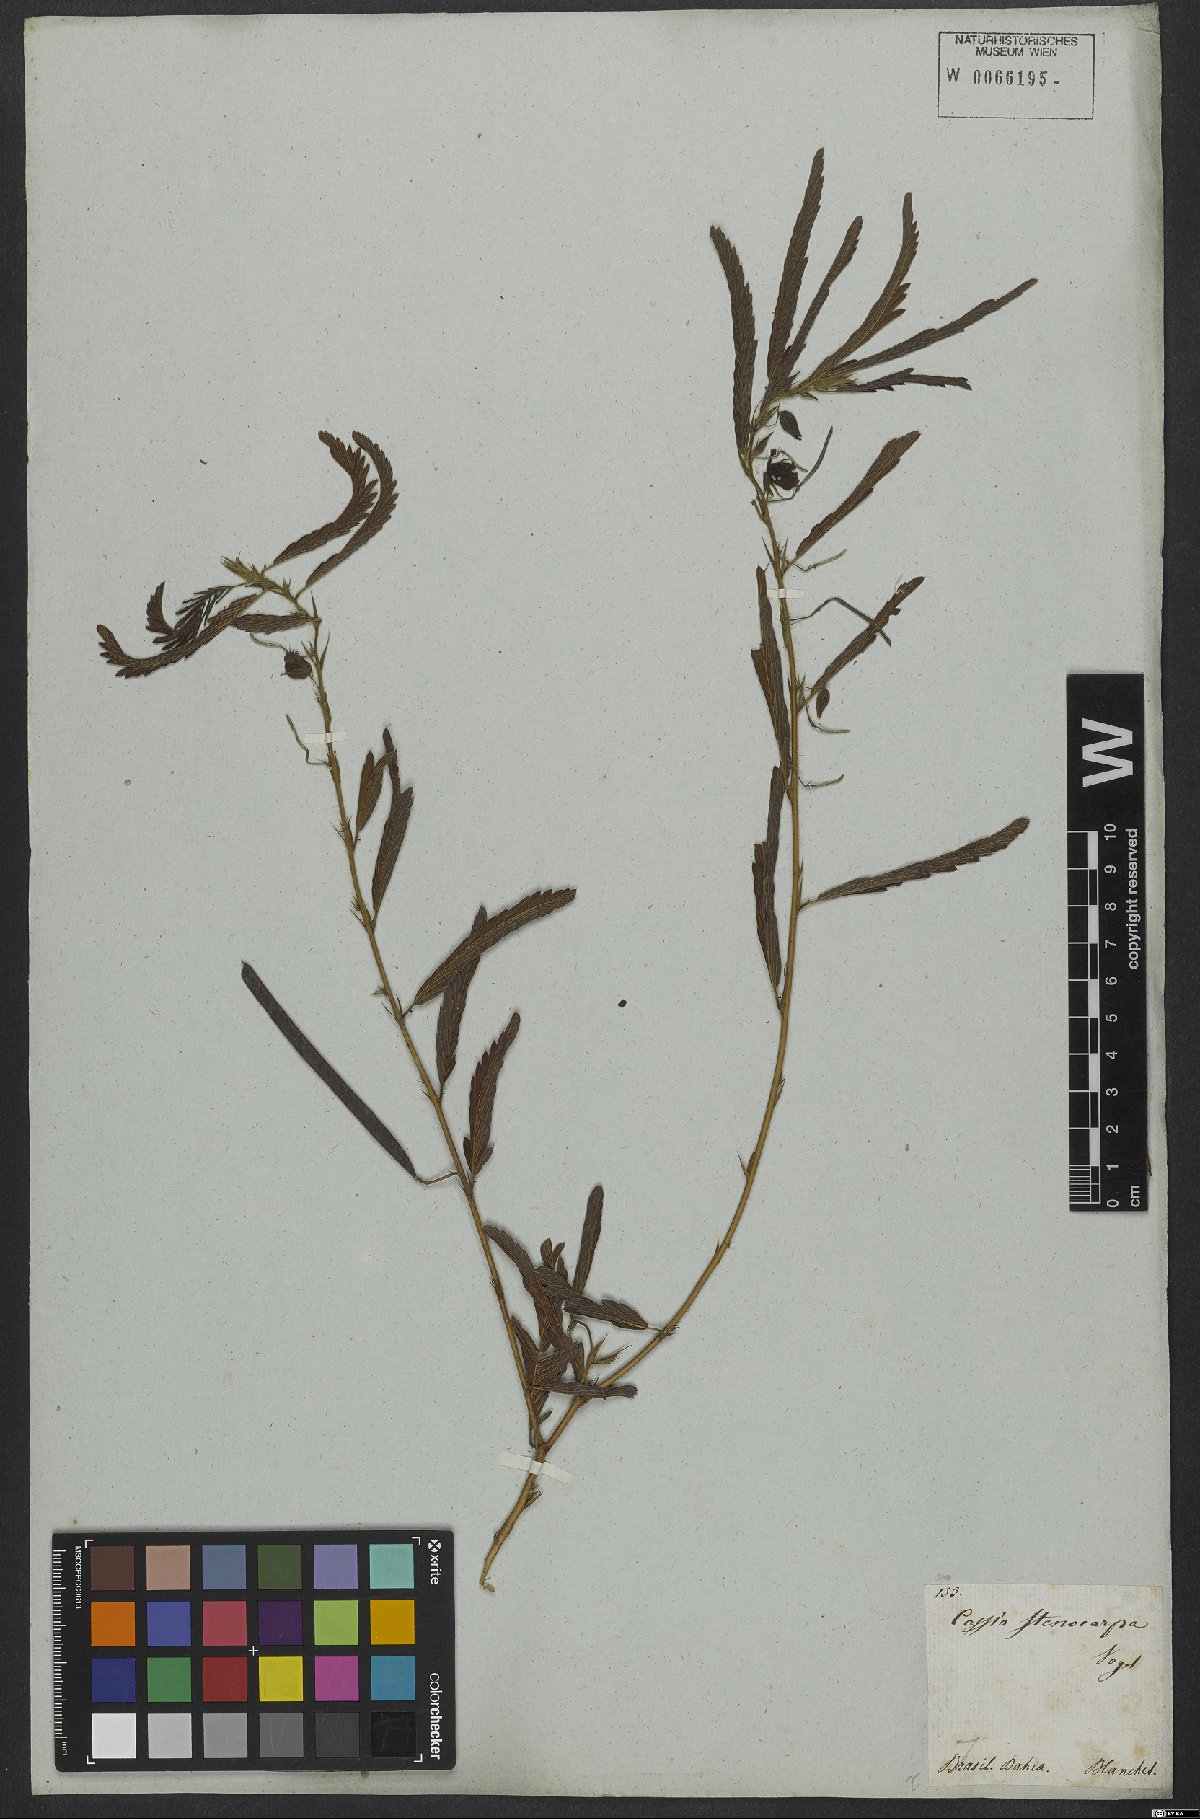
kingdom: Plantae
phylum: Tracheophyta
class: Magnoliopsida
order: Fabales
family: Fabaceae
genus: Chamaecrista
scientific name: Chamaecrista nictitans
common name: Sensitive cassia
